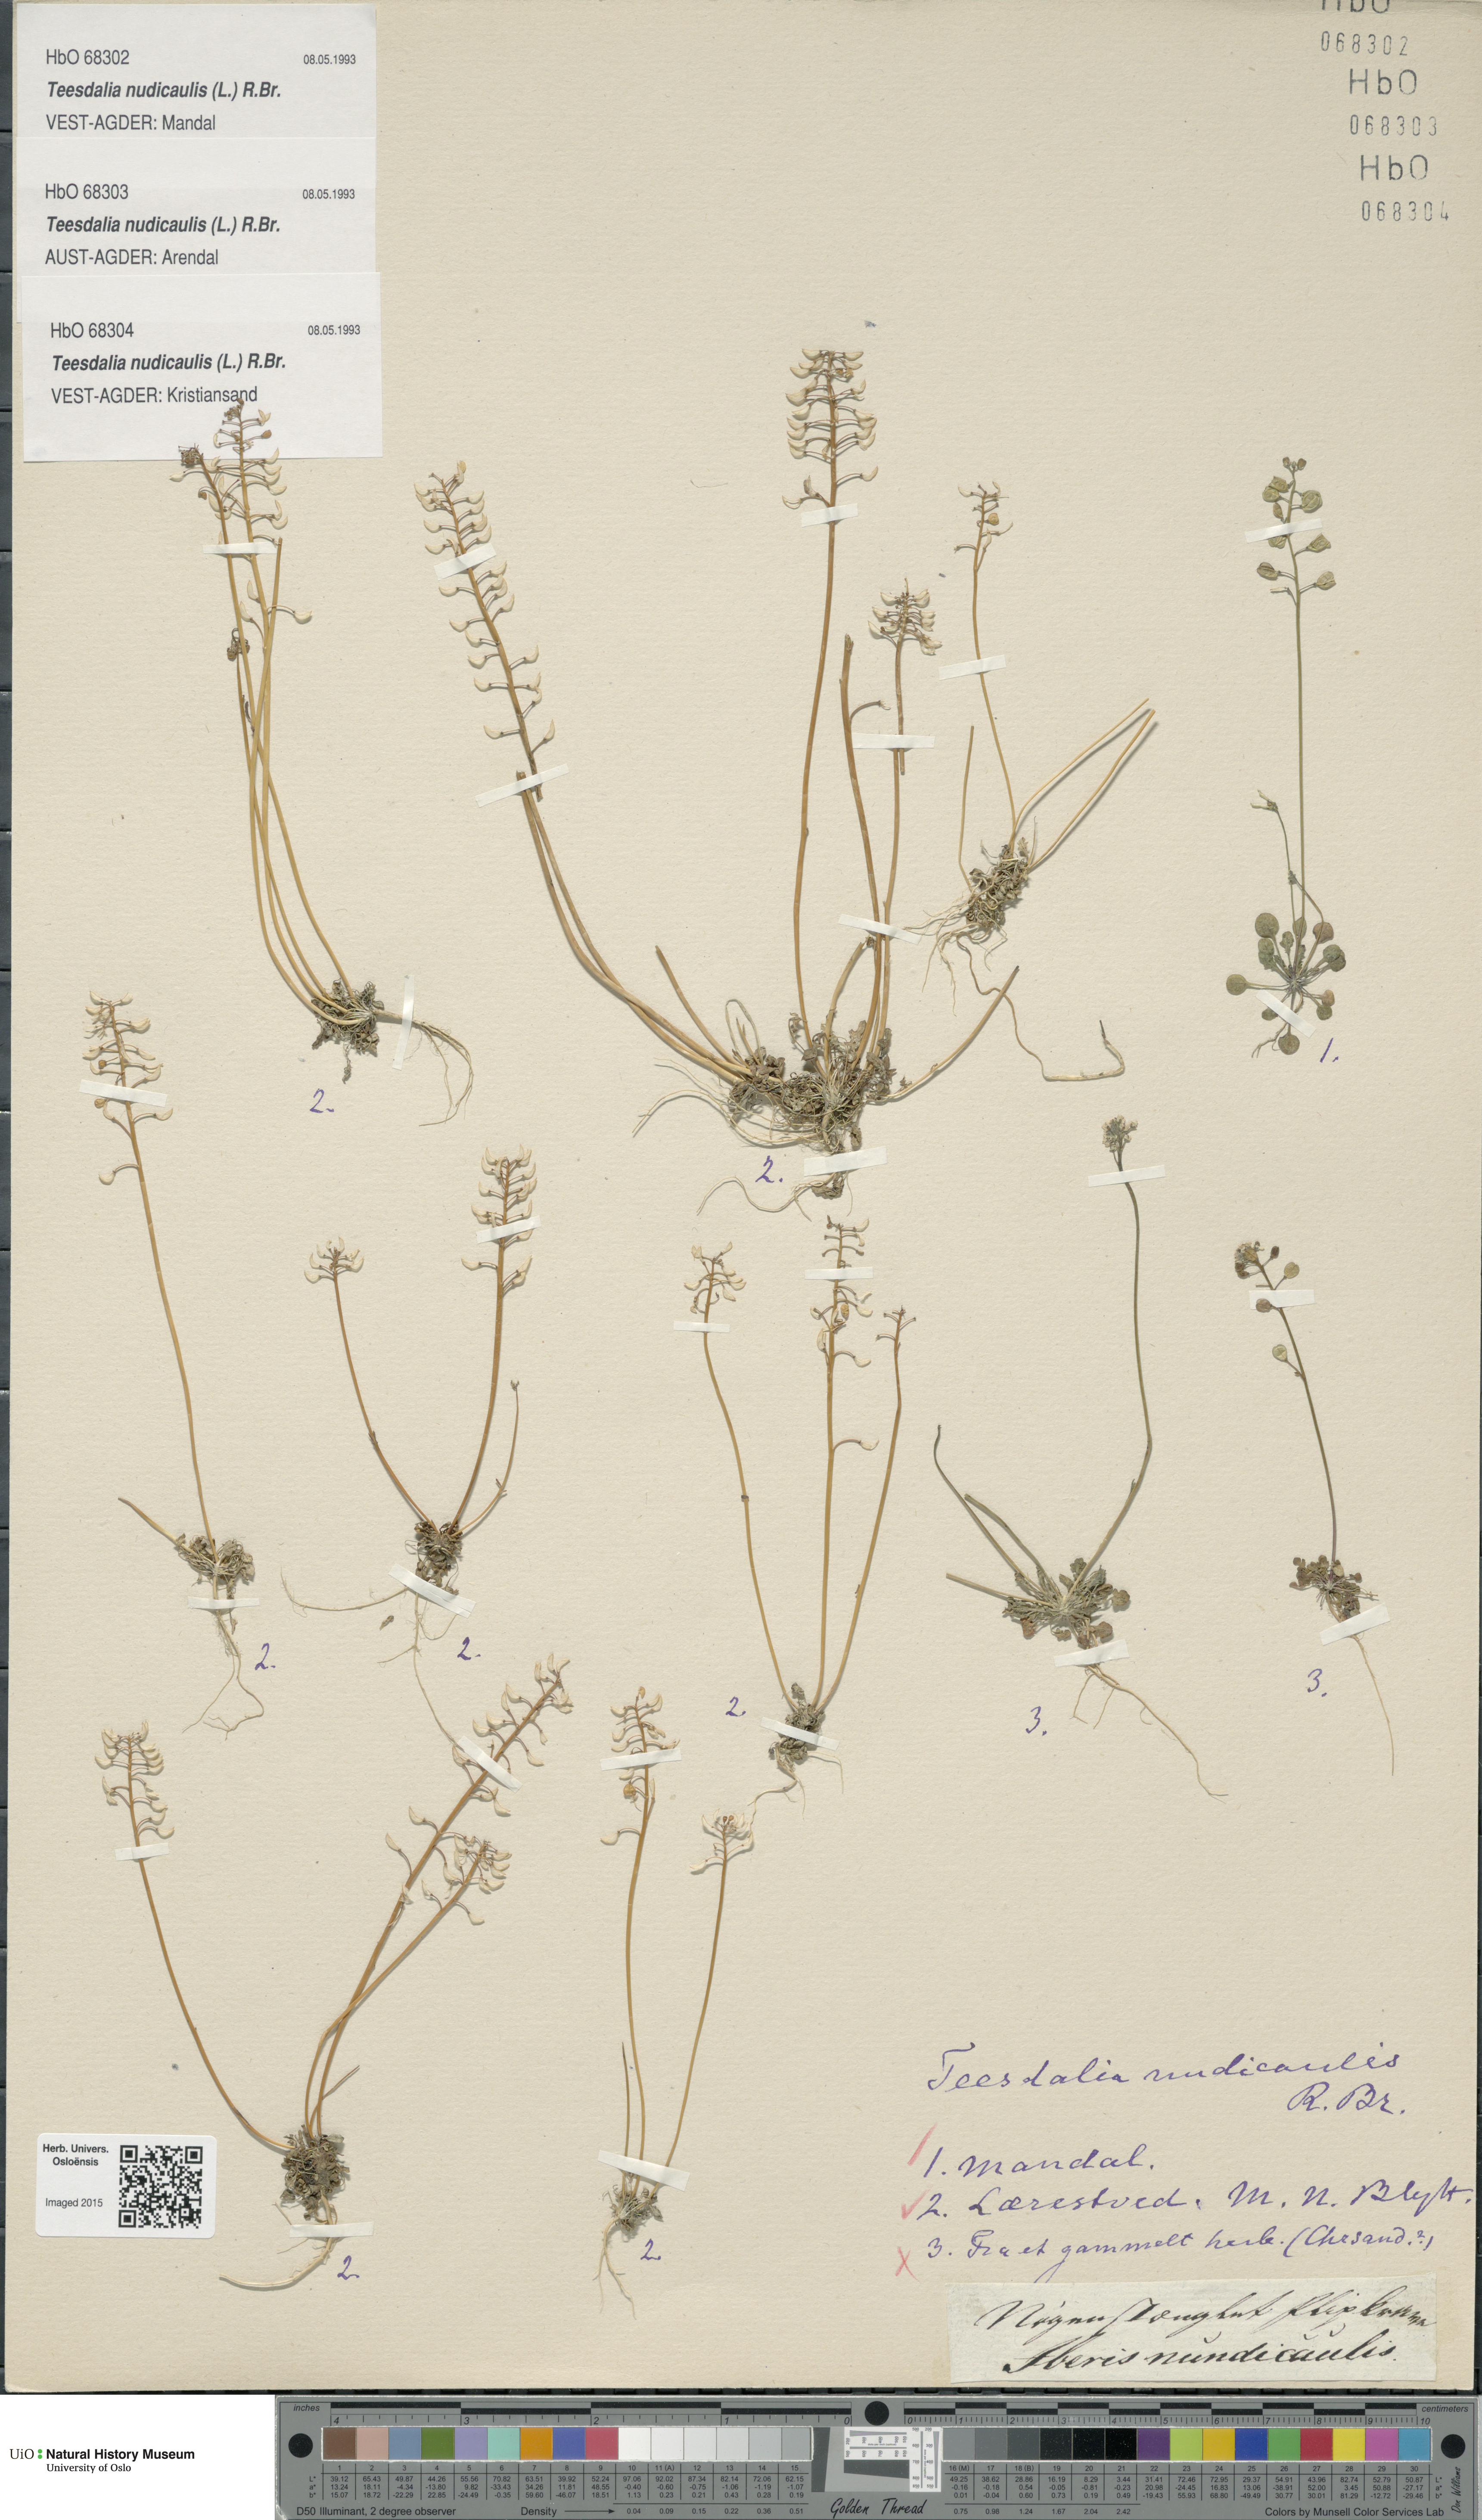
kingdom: Plantae
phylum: Tracheophyta
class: Magnoliopsida
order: Brassicales
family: Brassicaceae
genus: Teesdalia
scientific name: Teesdalia nudicaulis
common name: Shepherd's cress
